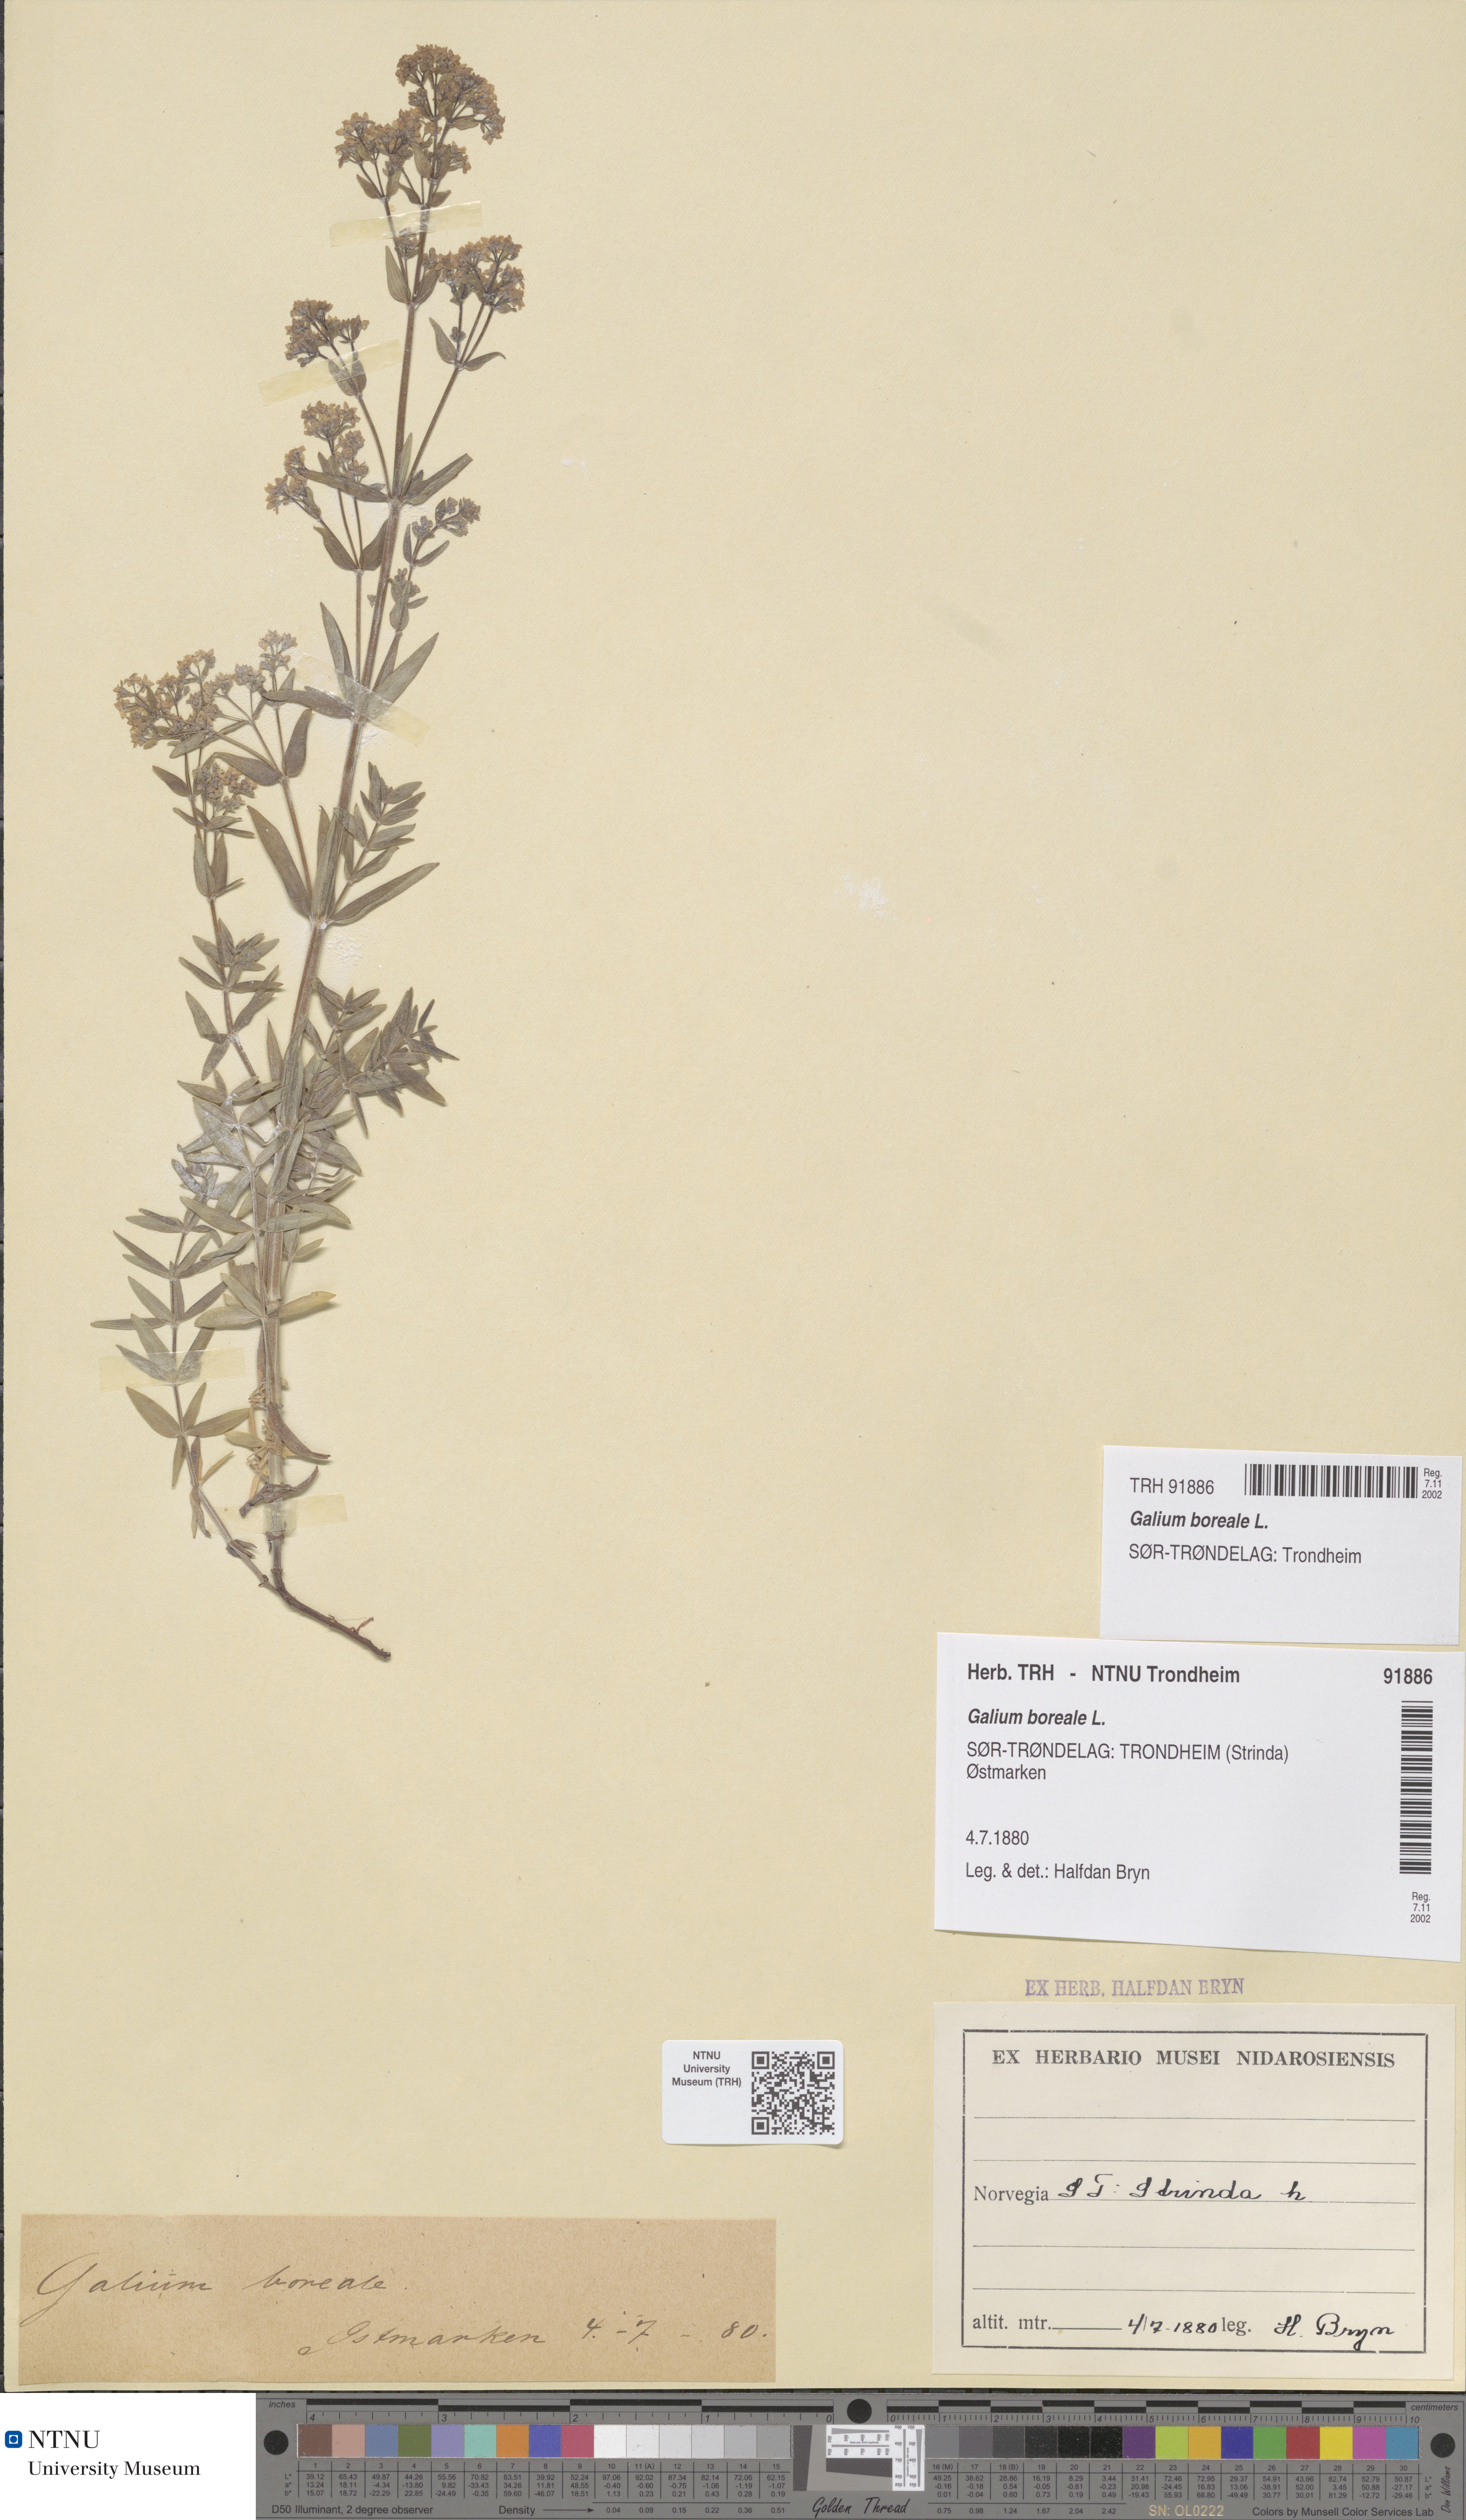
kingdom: Plantae
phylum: Tracheophyta
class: Magnoliopsida
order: Gentianales
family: Rubiaceae
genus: Galium
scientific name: Galium boreale
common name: Northern bedstraw
